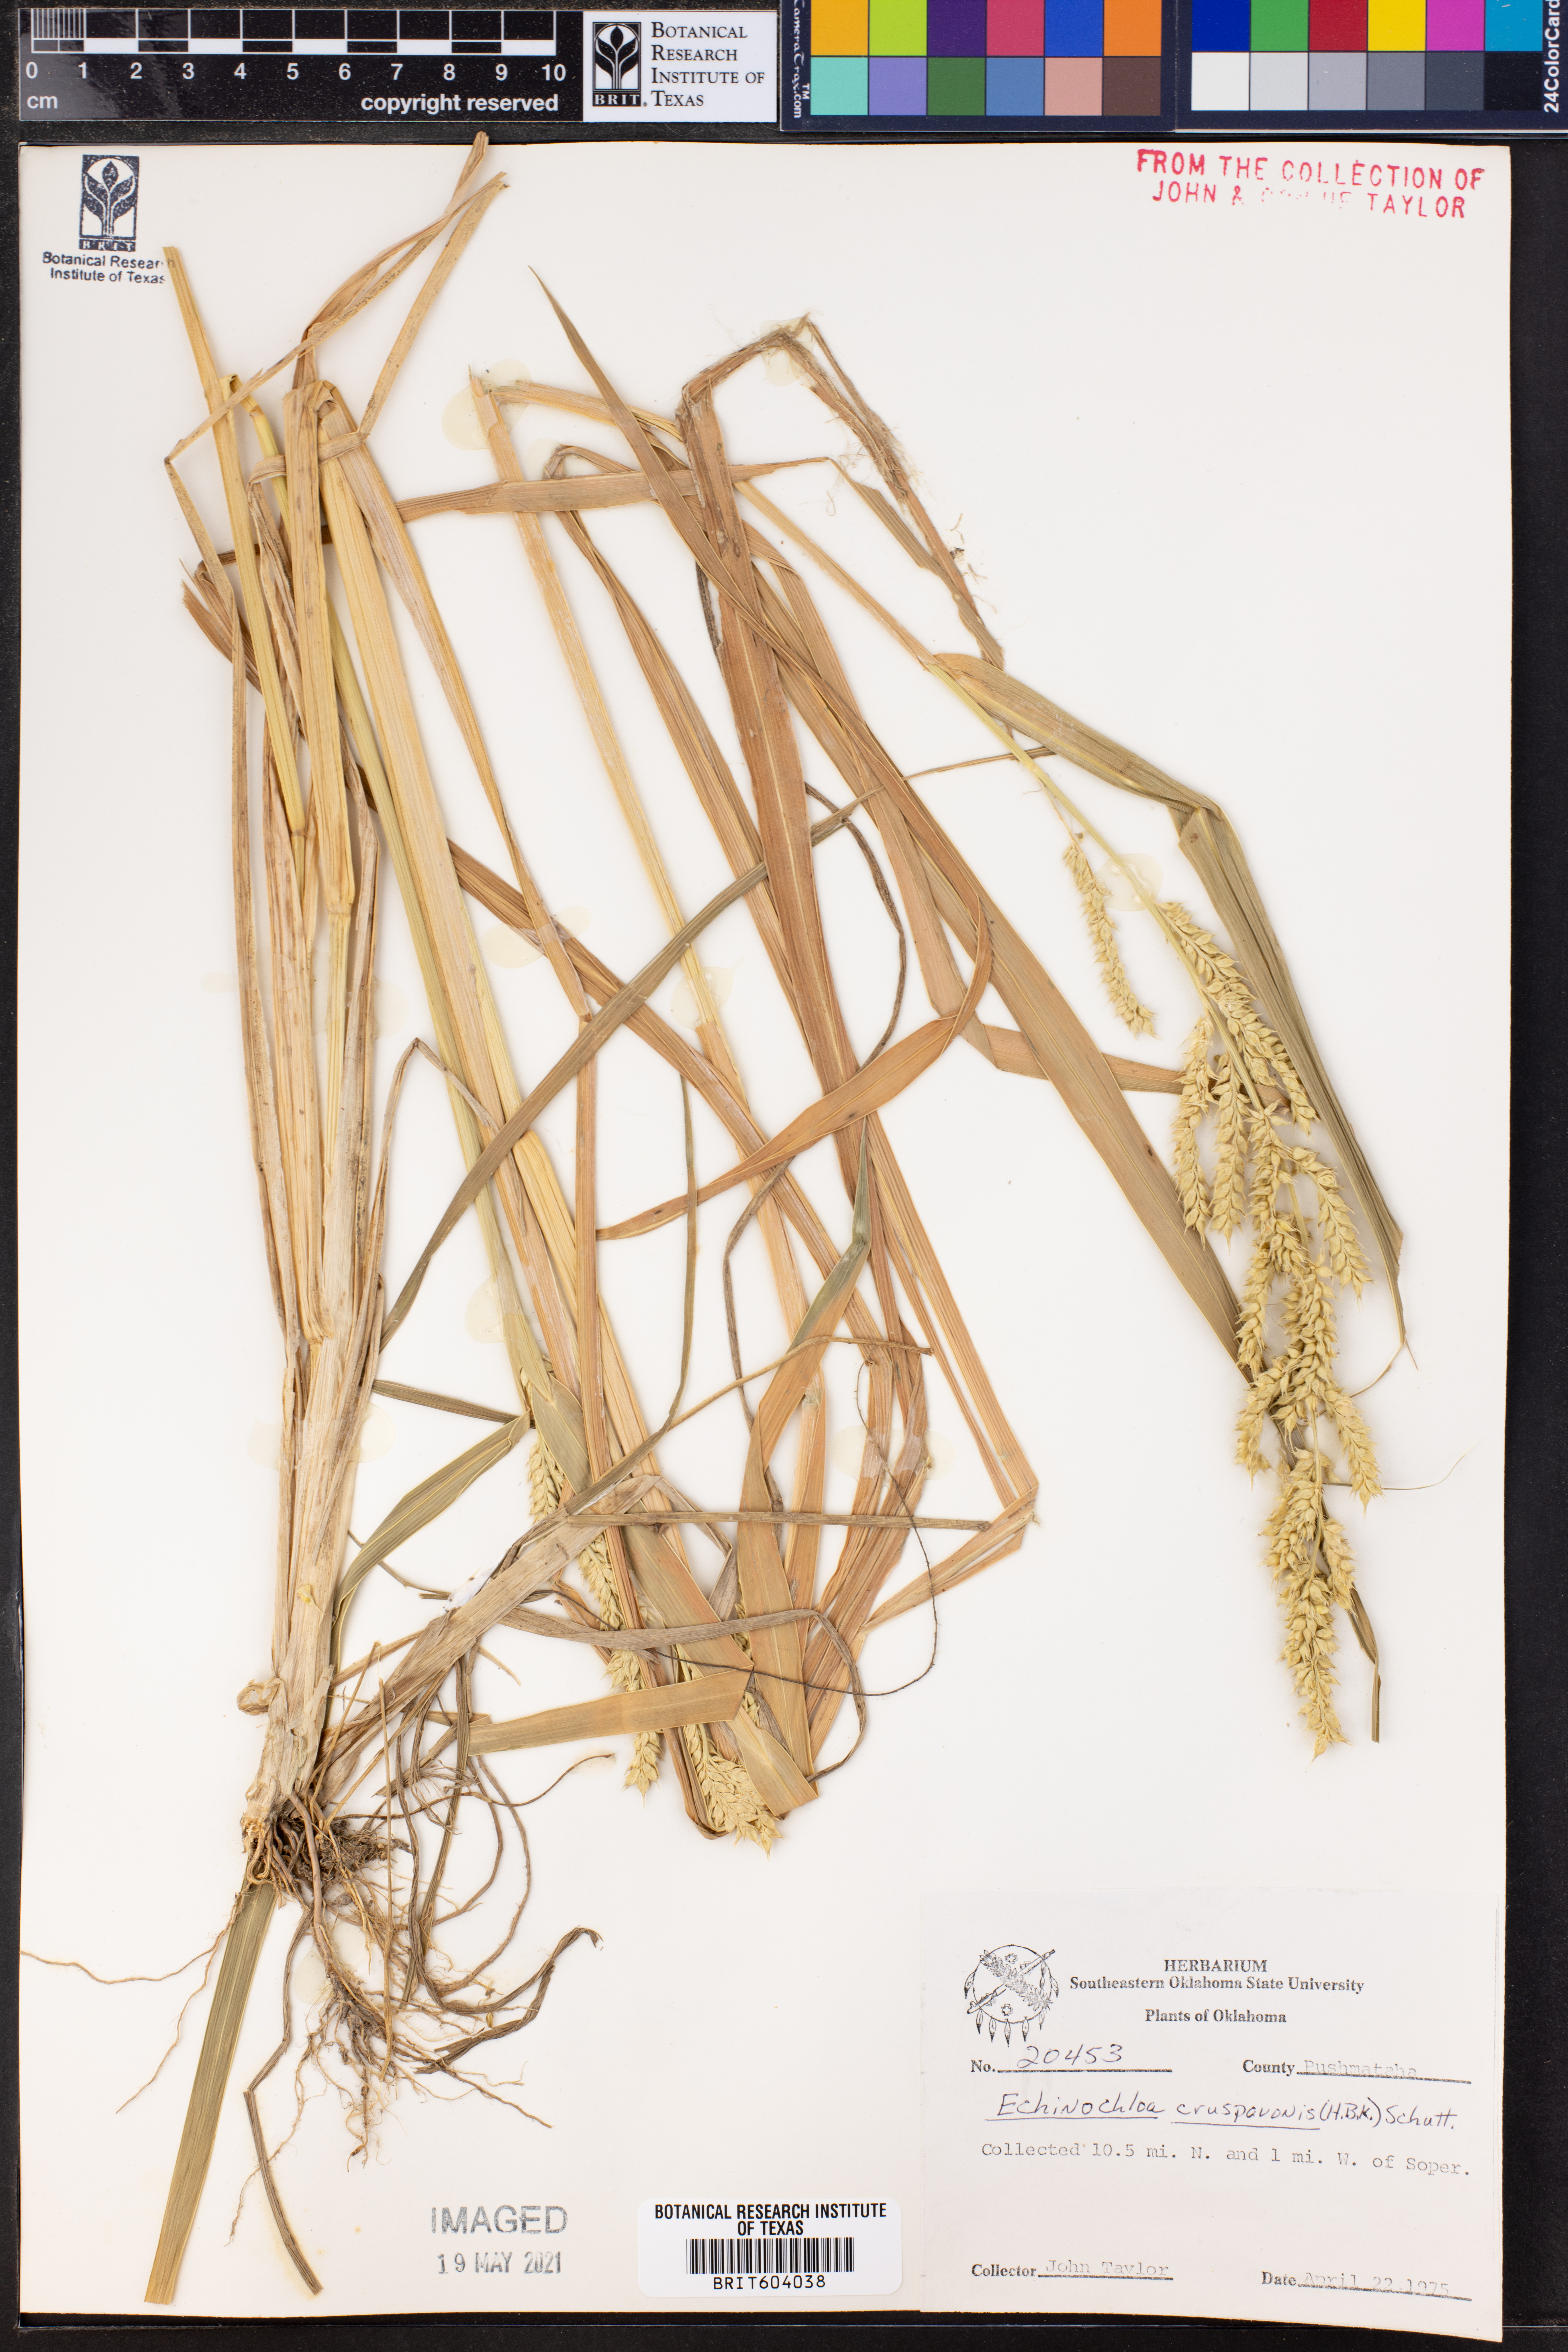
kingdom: Plantae
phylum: Tracheophyta
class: Liliopsida
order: Poales
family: Poaceae
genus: Echinochloa
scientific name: Echinochloa crus-pavonis
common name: Gulf cockspur grass
